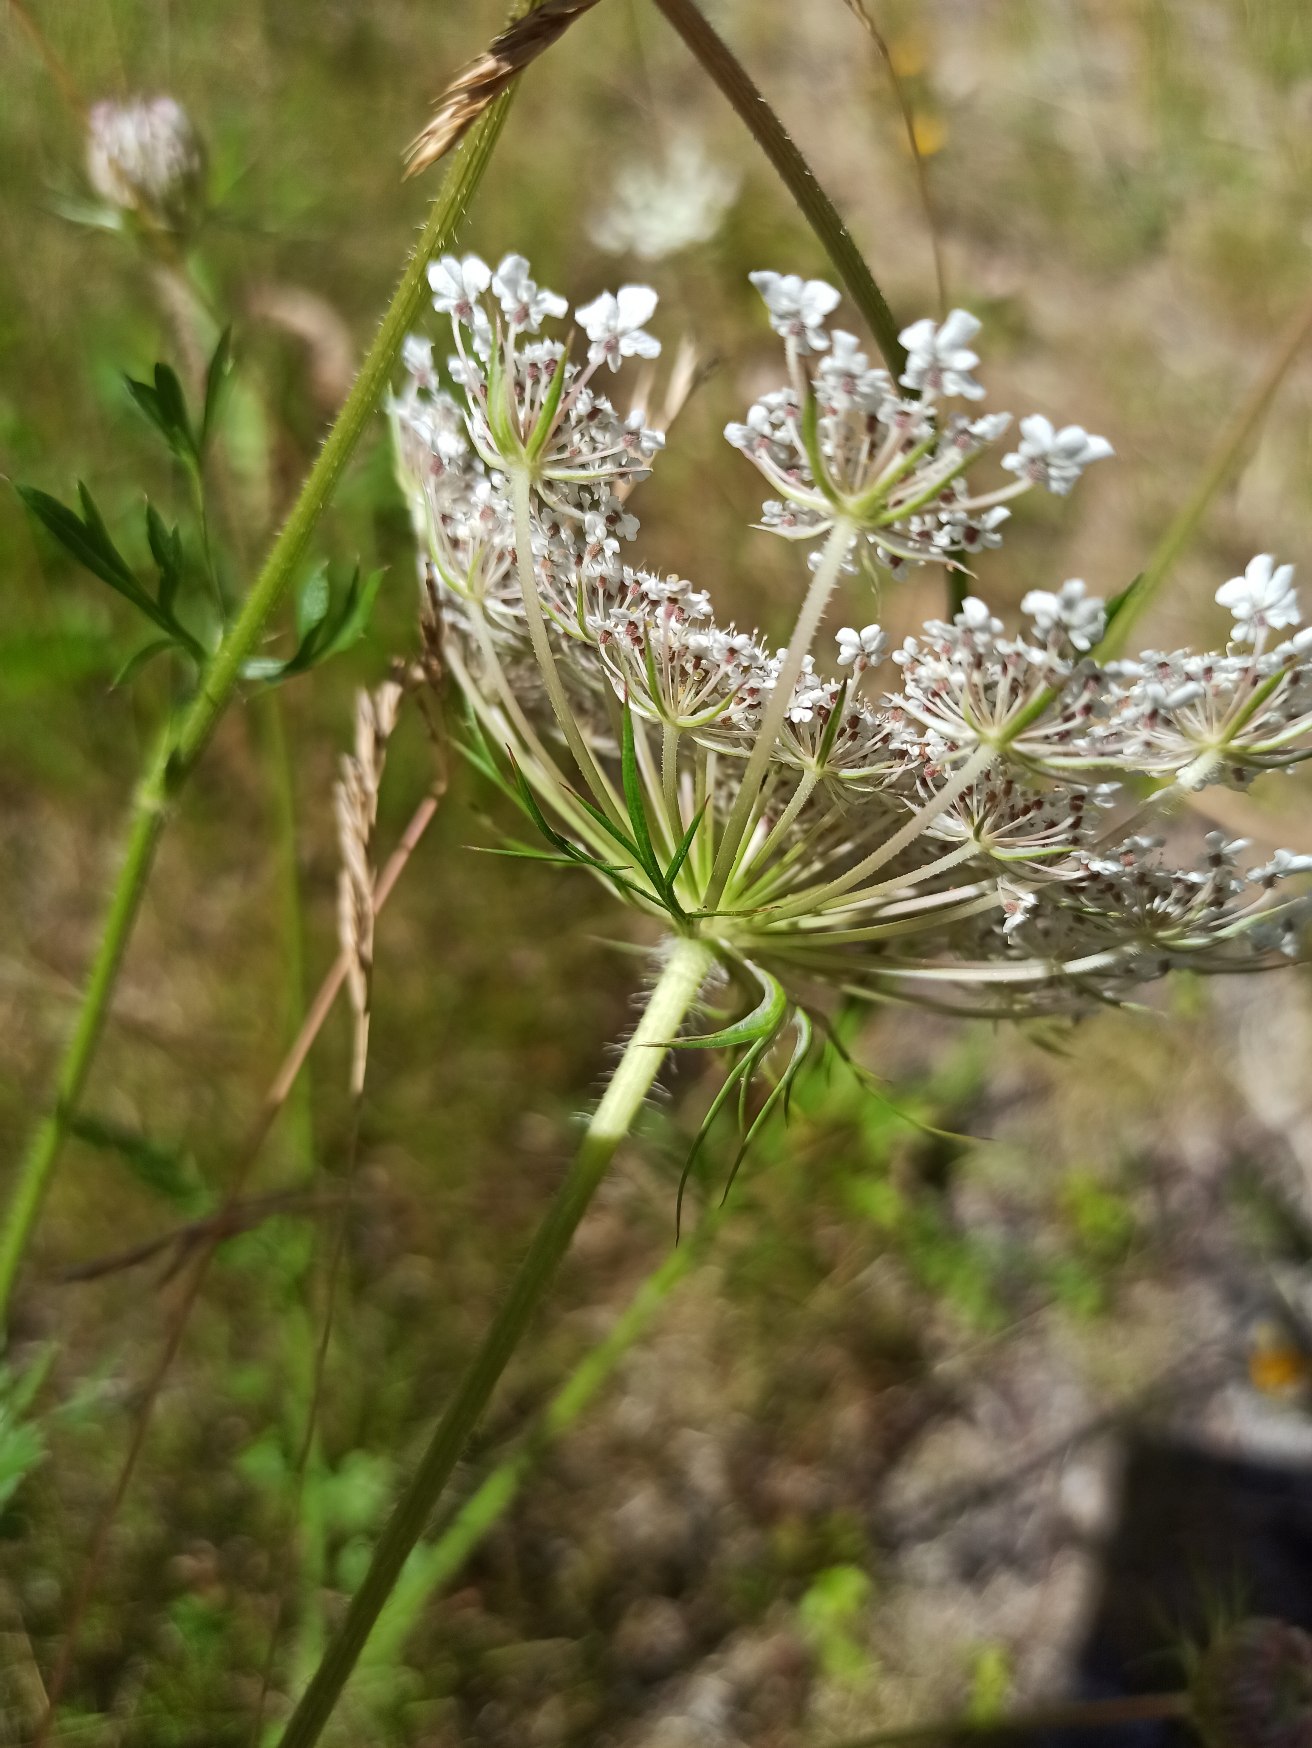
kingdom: Plantae
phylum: Tracheophyta
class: Magnoliopsida
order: Apiales
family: Apiaceae
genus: Daucus
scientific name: Daucus carota
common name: Vild gulerod
